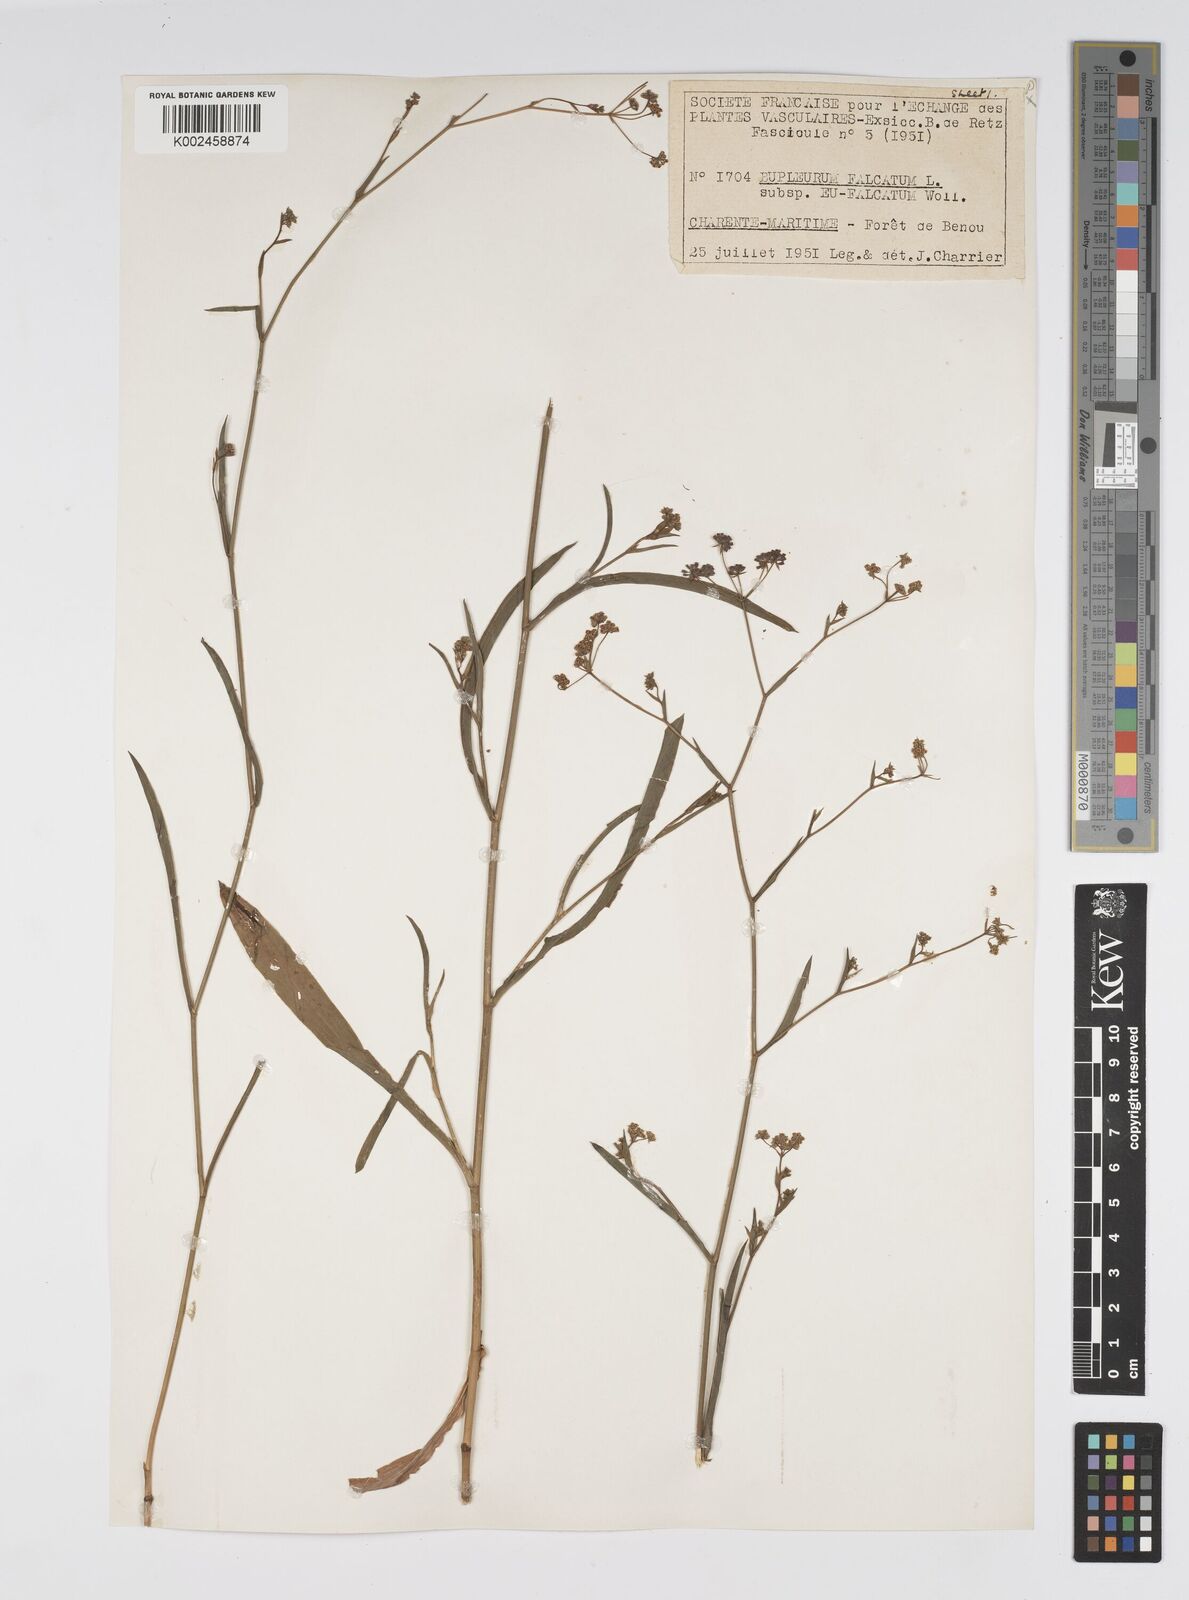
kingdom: Plantae
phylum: Tracheophyta
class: Magnoliopsida
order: Apiales
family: Apiaceae
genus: Bupleurum
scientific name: Bupleurum falcatum
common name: Sickle-leaved hare's-ear
